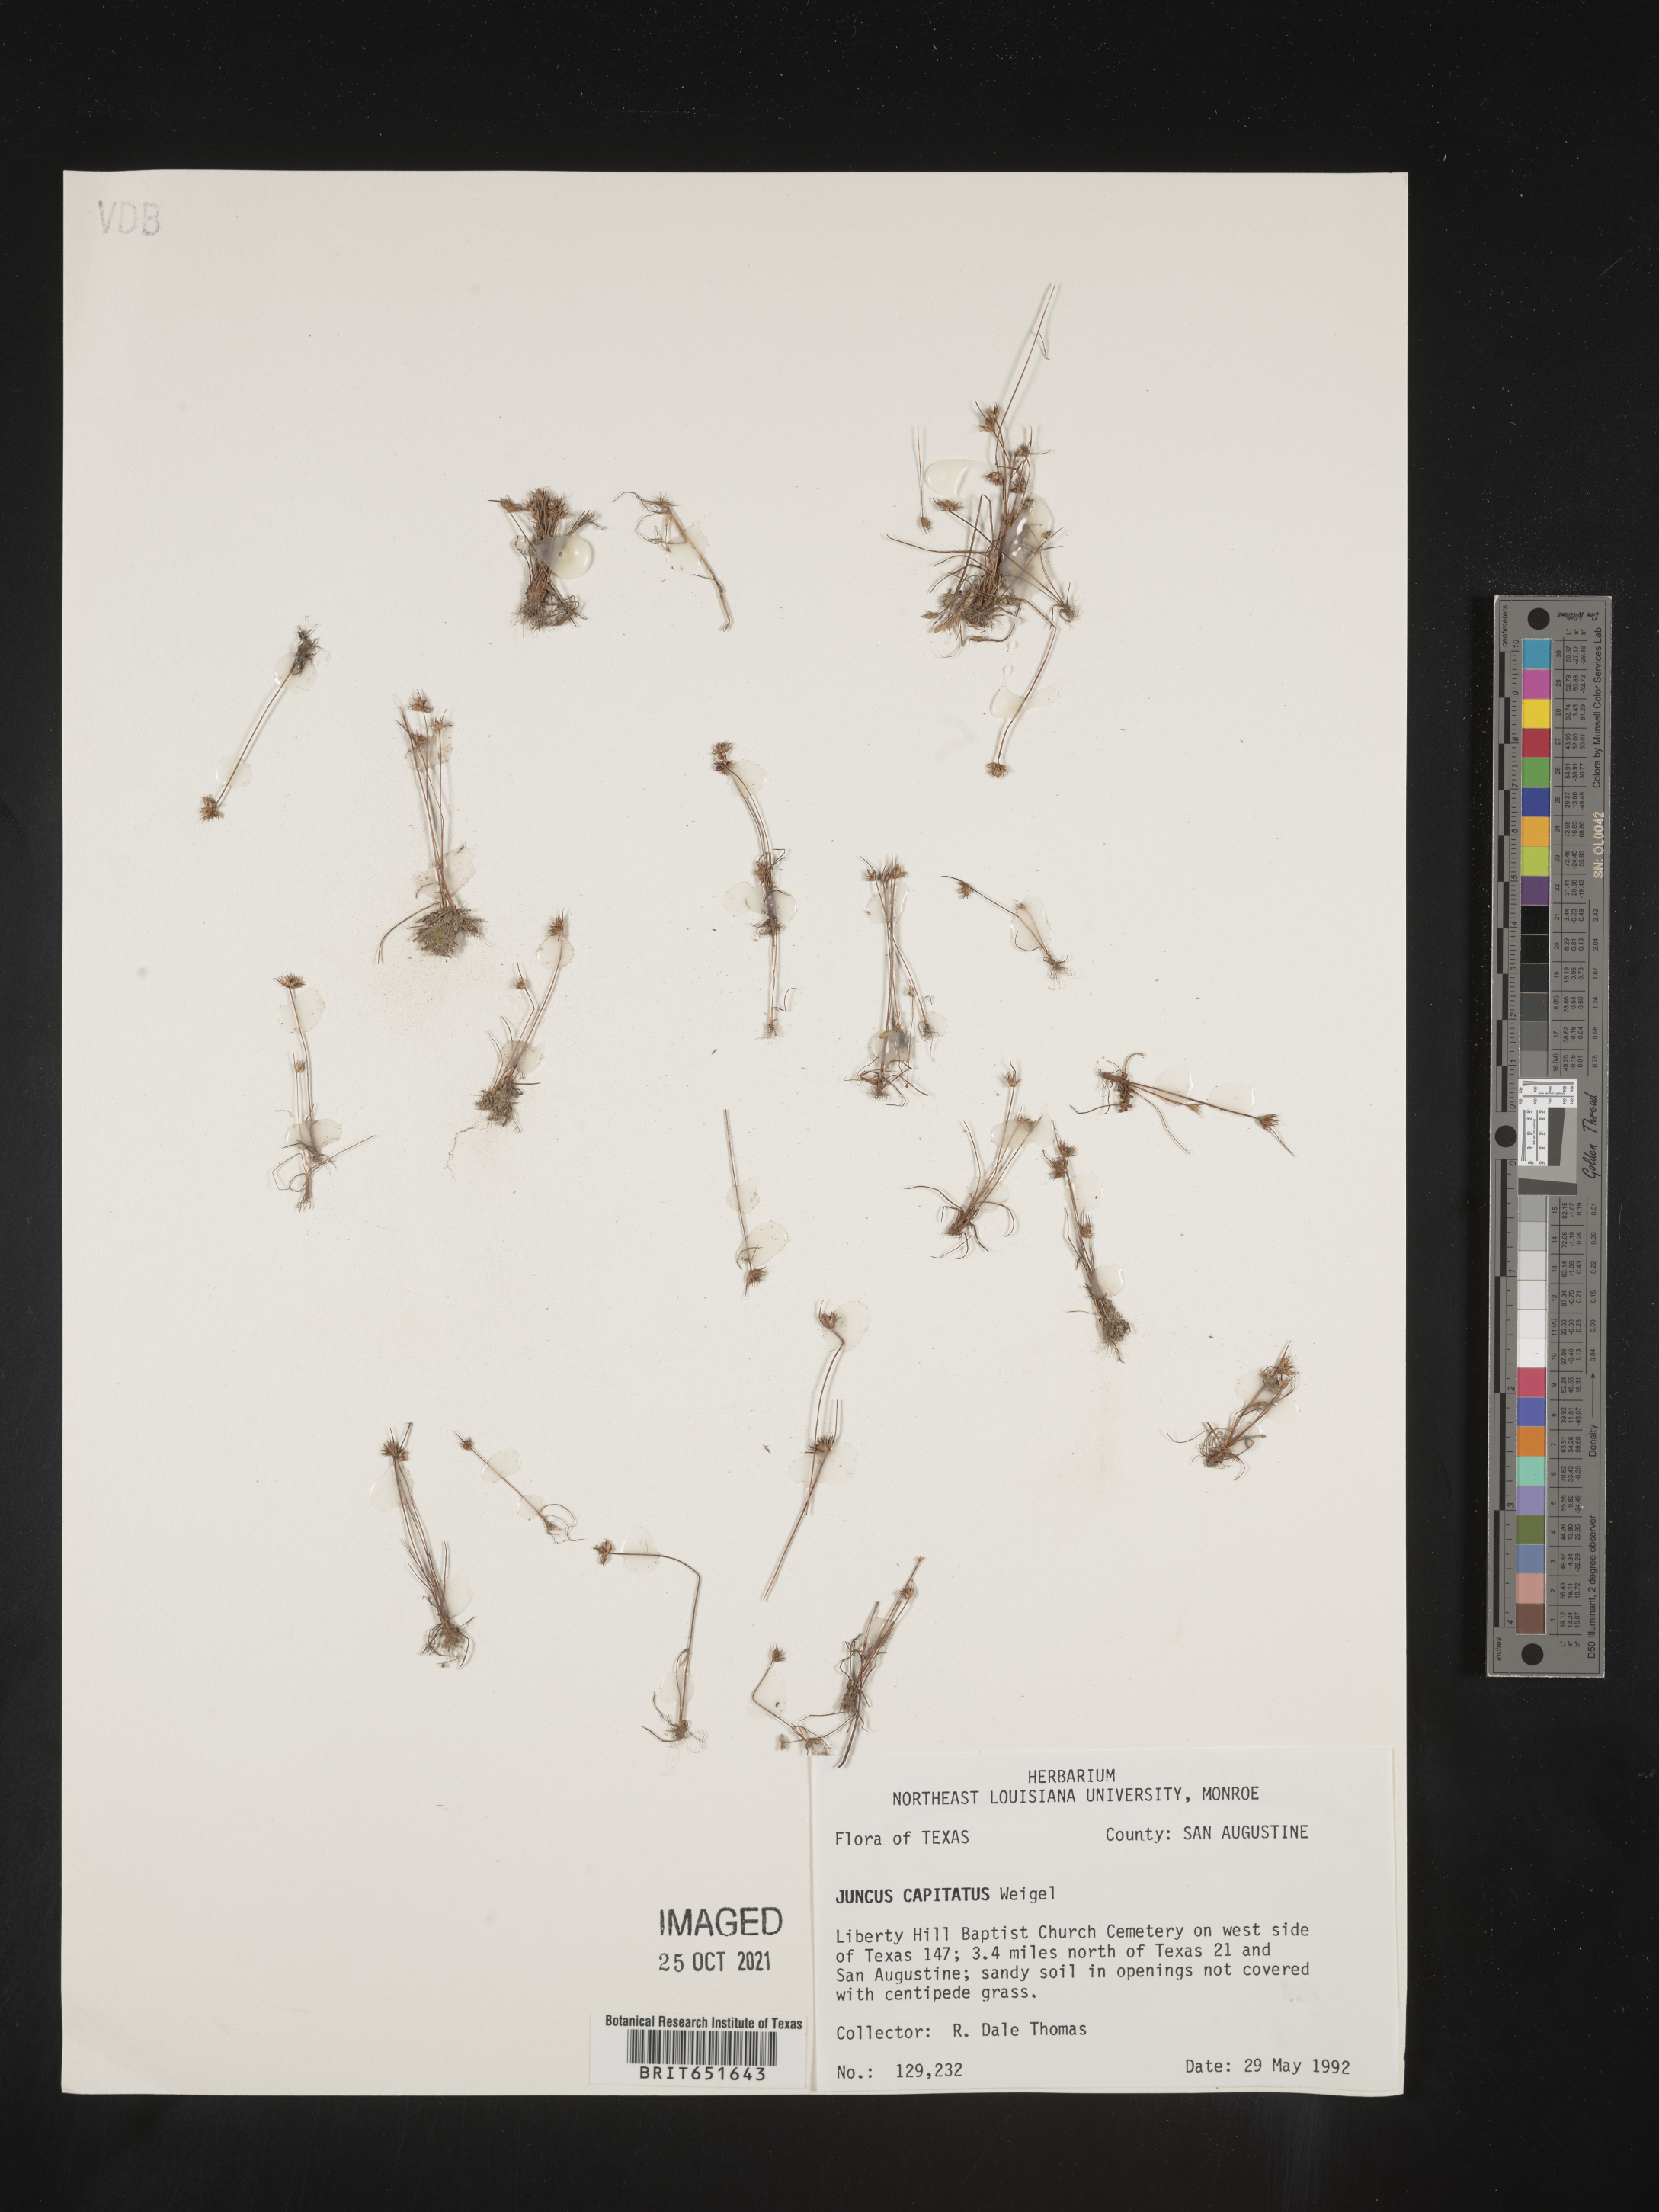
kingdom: Plantae
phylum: Tracheophyta
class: Liliopsida
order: Poales
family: Juncaceae
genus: Juncus
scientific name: Juncus capitatus
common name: Dwarf rush
